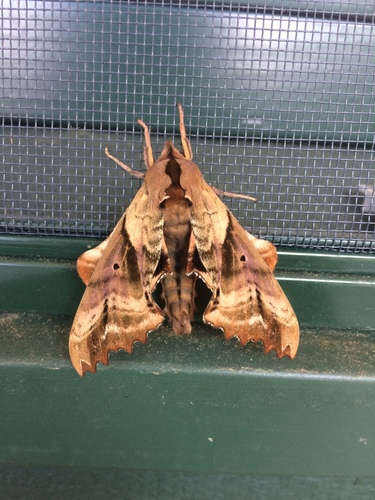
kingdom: Animalia
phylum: Arthropoda
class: Insecta
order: Lepidoptera
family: Sphingidae
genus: Paonias
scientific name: Paonias excaecata
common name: Blind-eyed sphinx
